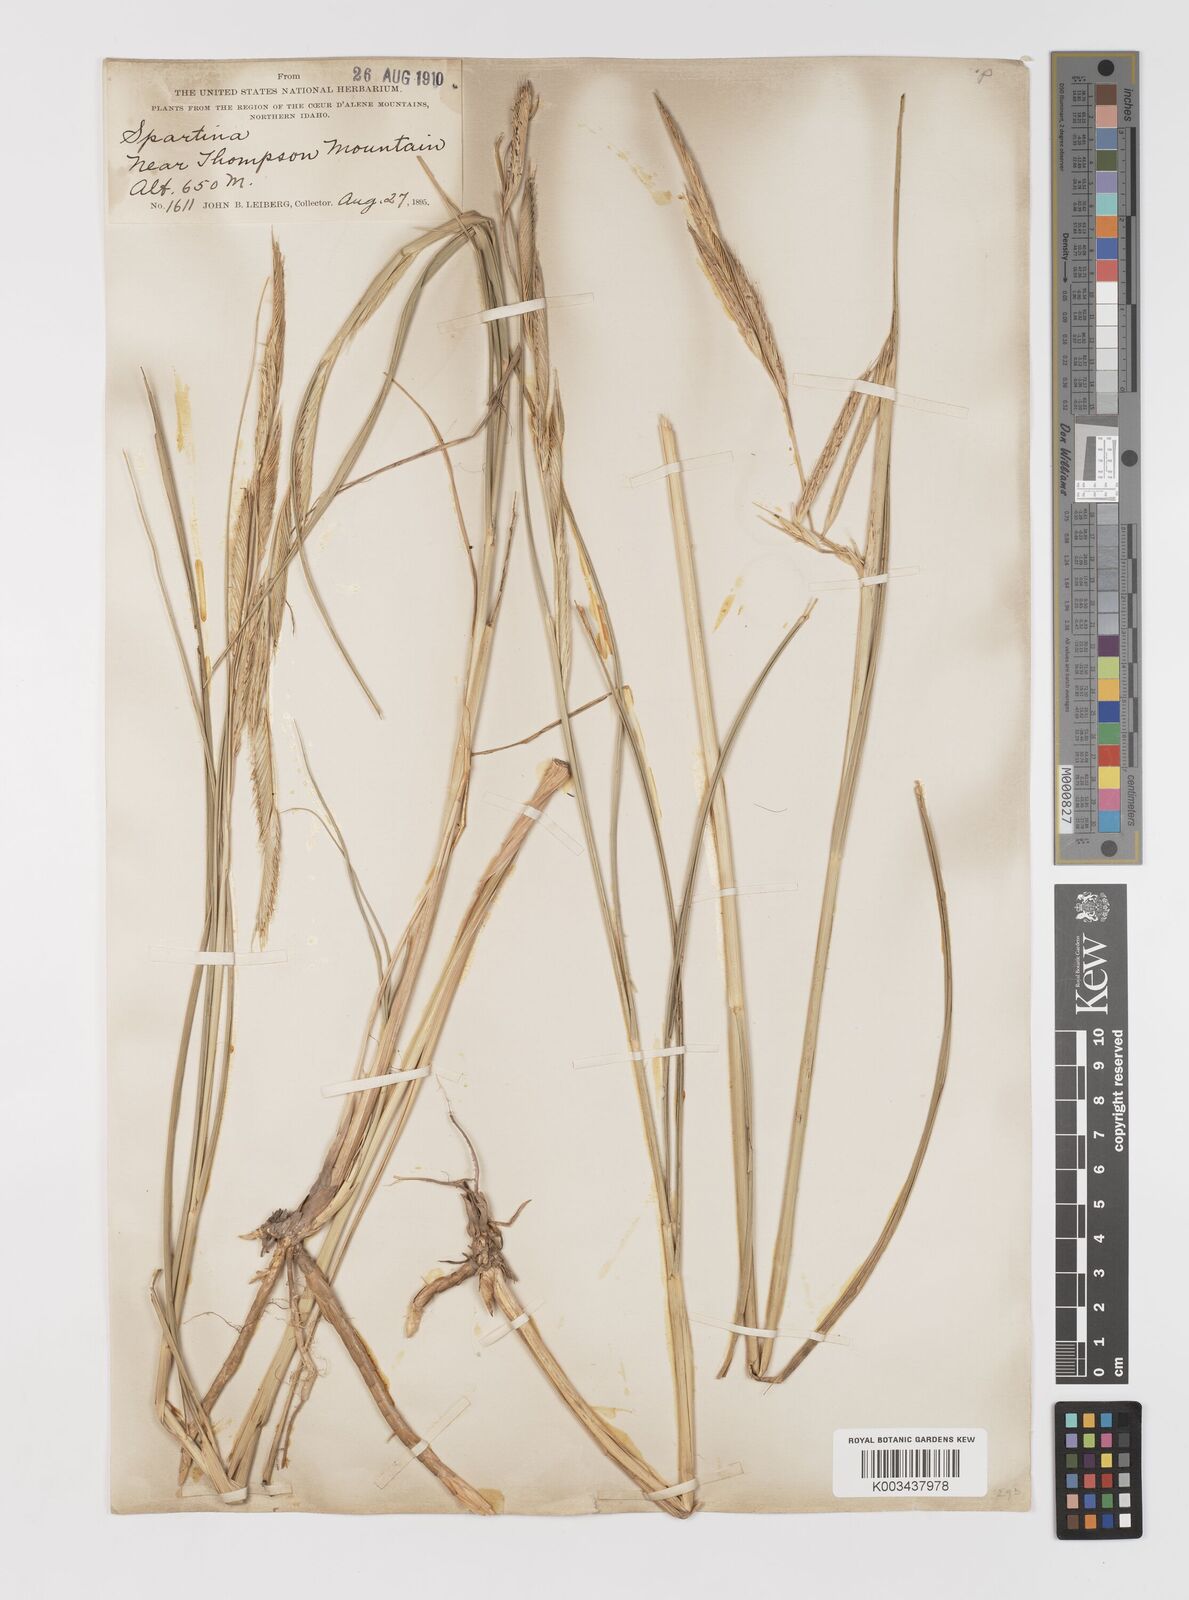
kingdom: Plantae
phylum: Tracheophyta
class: Liliopsida
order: Poales
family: Poaceae
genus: Sporobolus
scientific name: Sporobolus michauxianus
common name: Freshwater cordgrass
